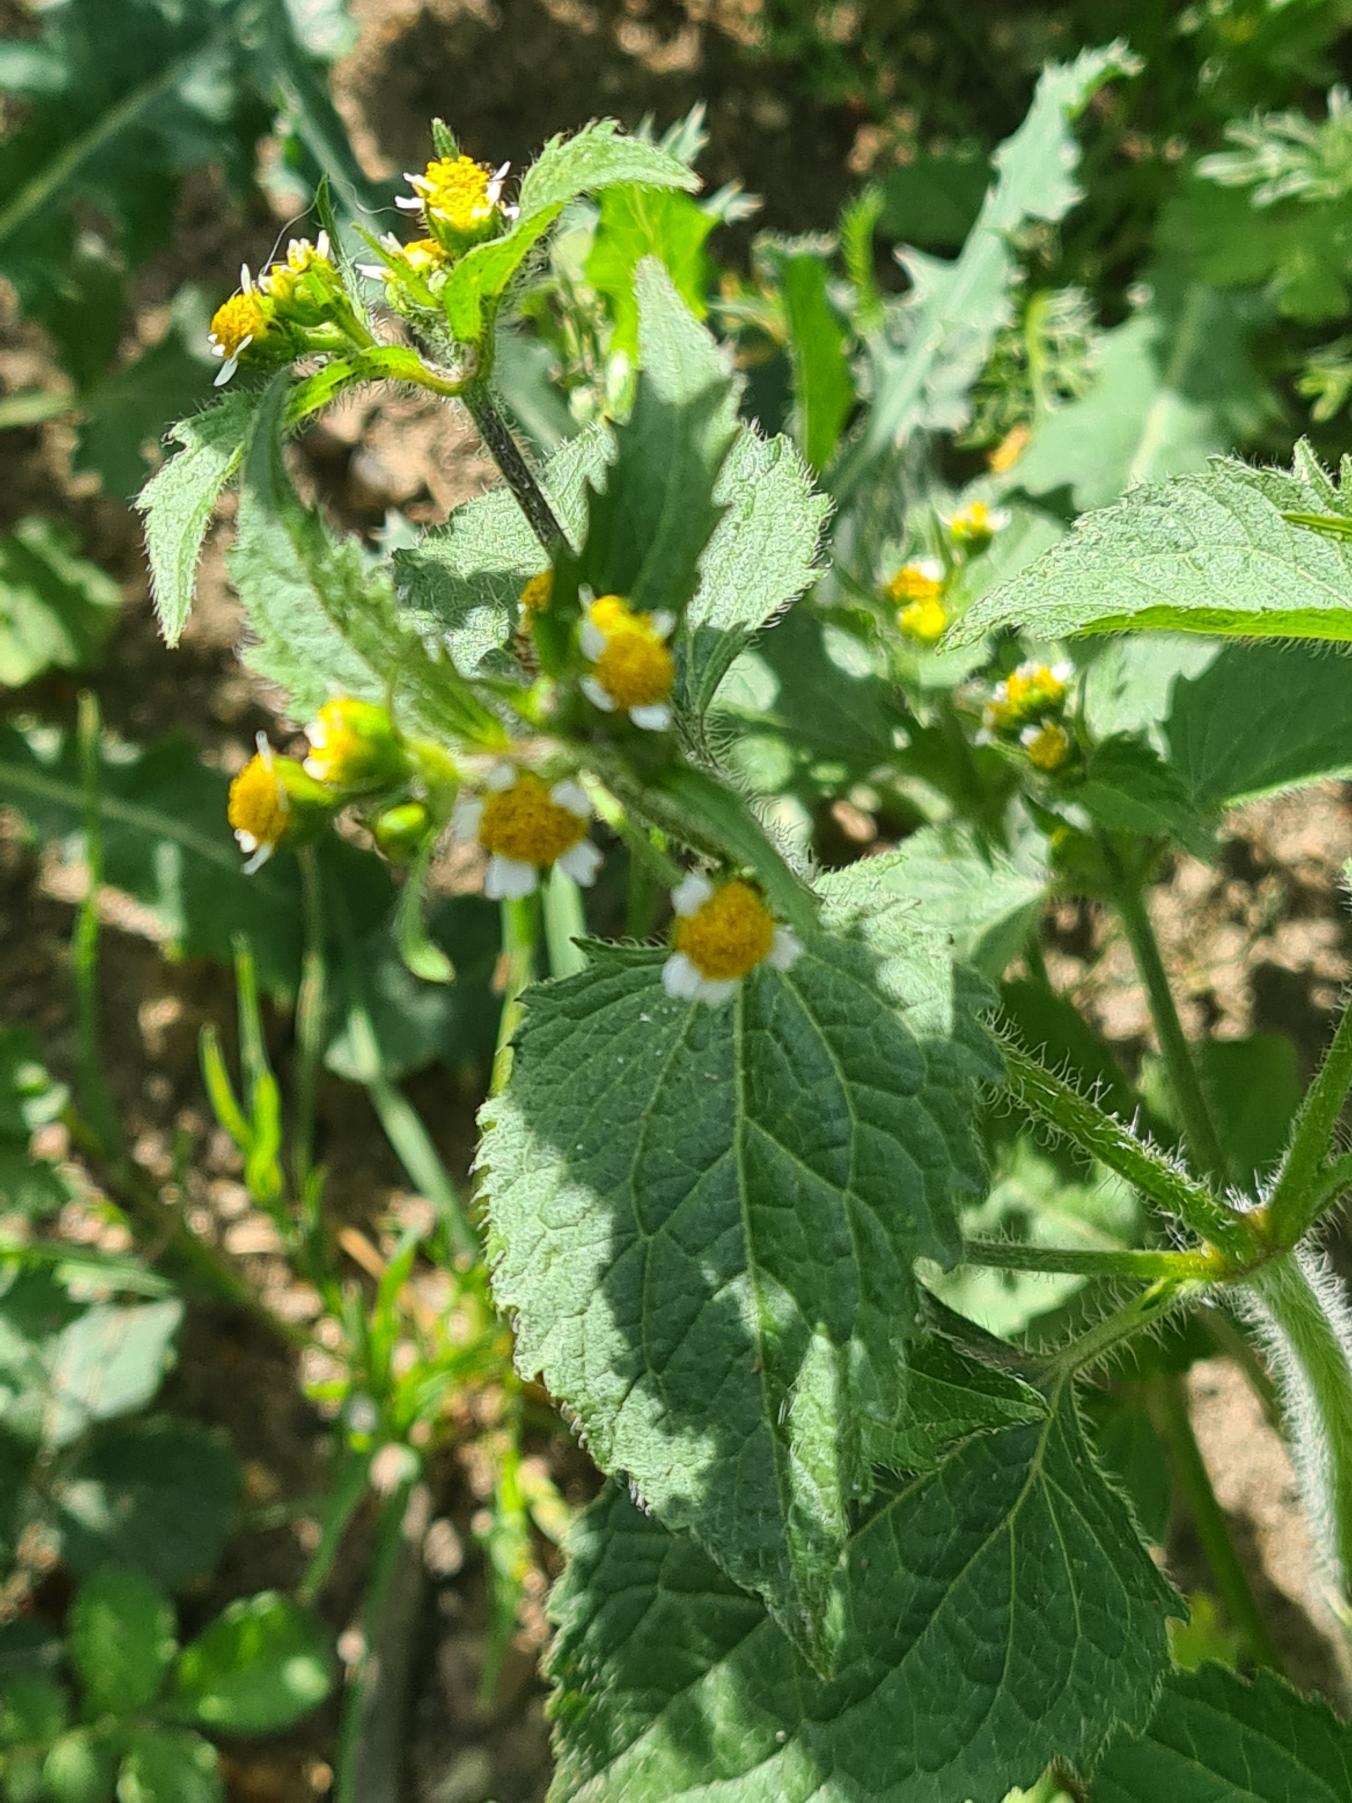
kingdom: Plantae
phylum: Tracheophyta
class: Magnoliopsida
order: Asterales
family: Asteraceae
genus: Galinsoga
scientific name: Galinsoga quadriradiata
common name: Kirtel-kortstråle
